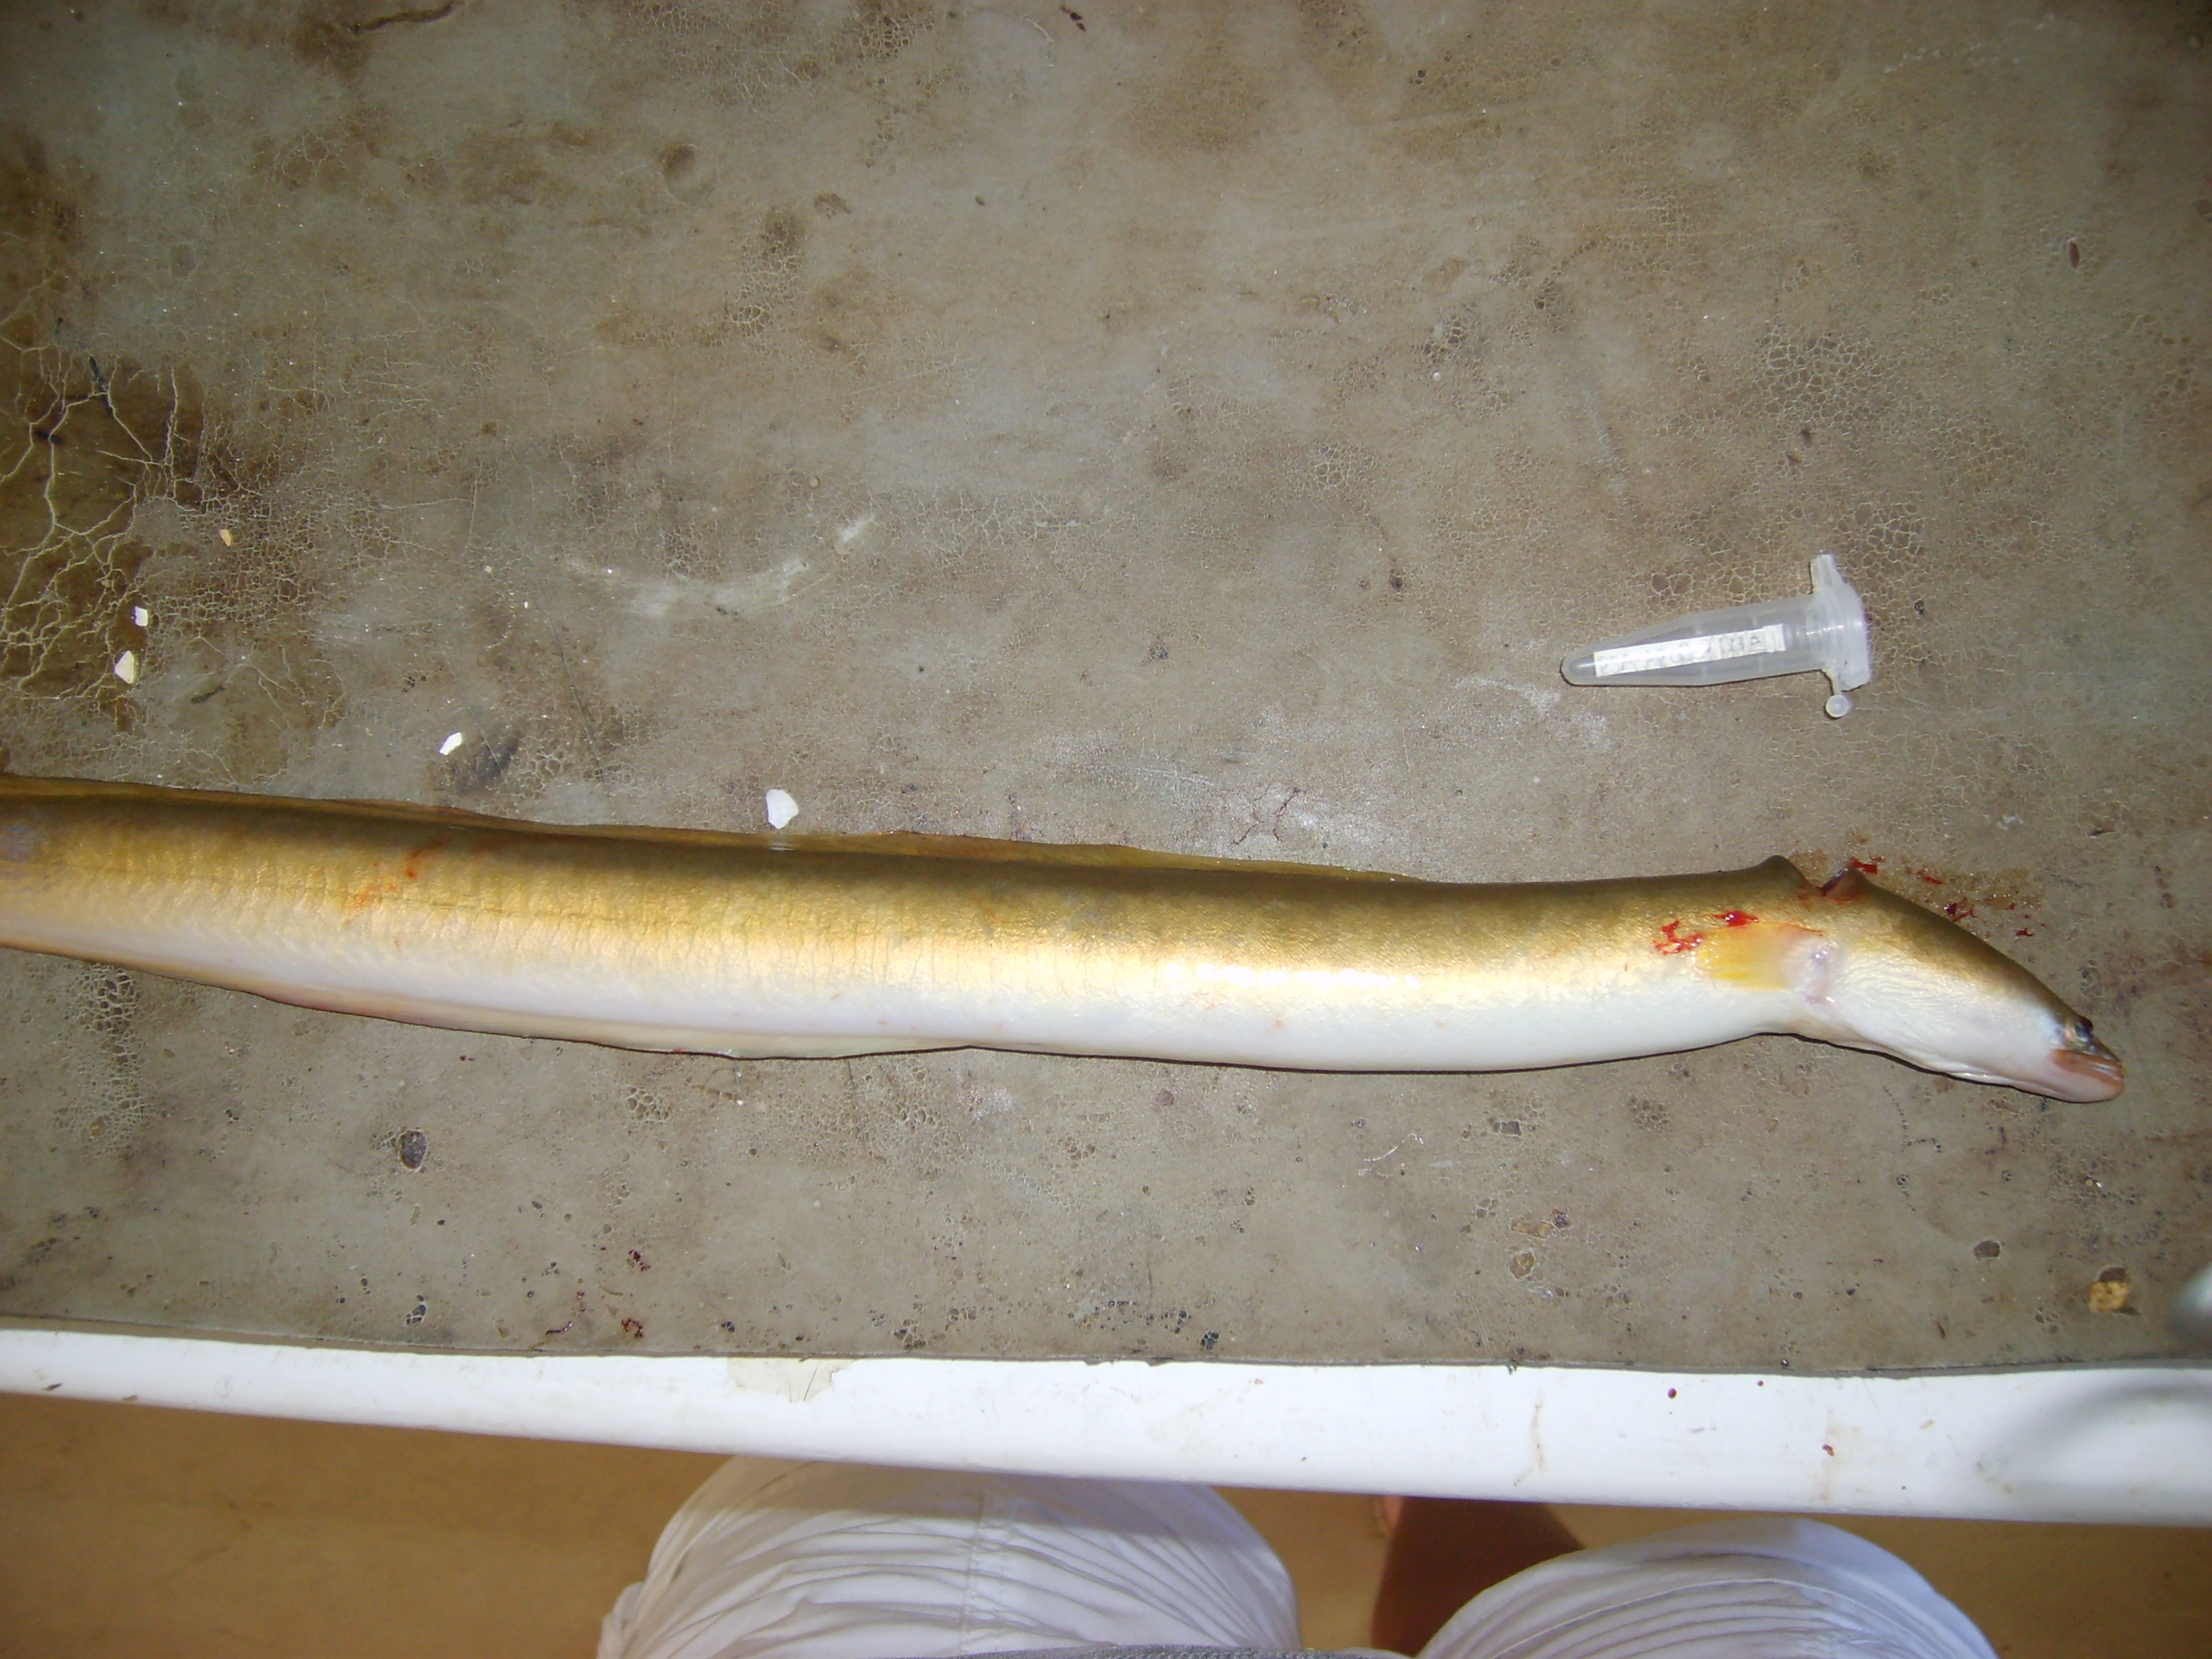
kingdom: Animalia
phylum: Chordata
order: Anguilliformes
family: Anguillidae
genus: Anguilla
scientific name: Anguilla mossambica
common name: African longfin eel
